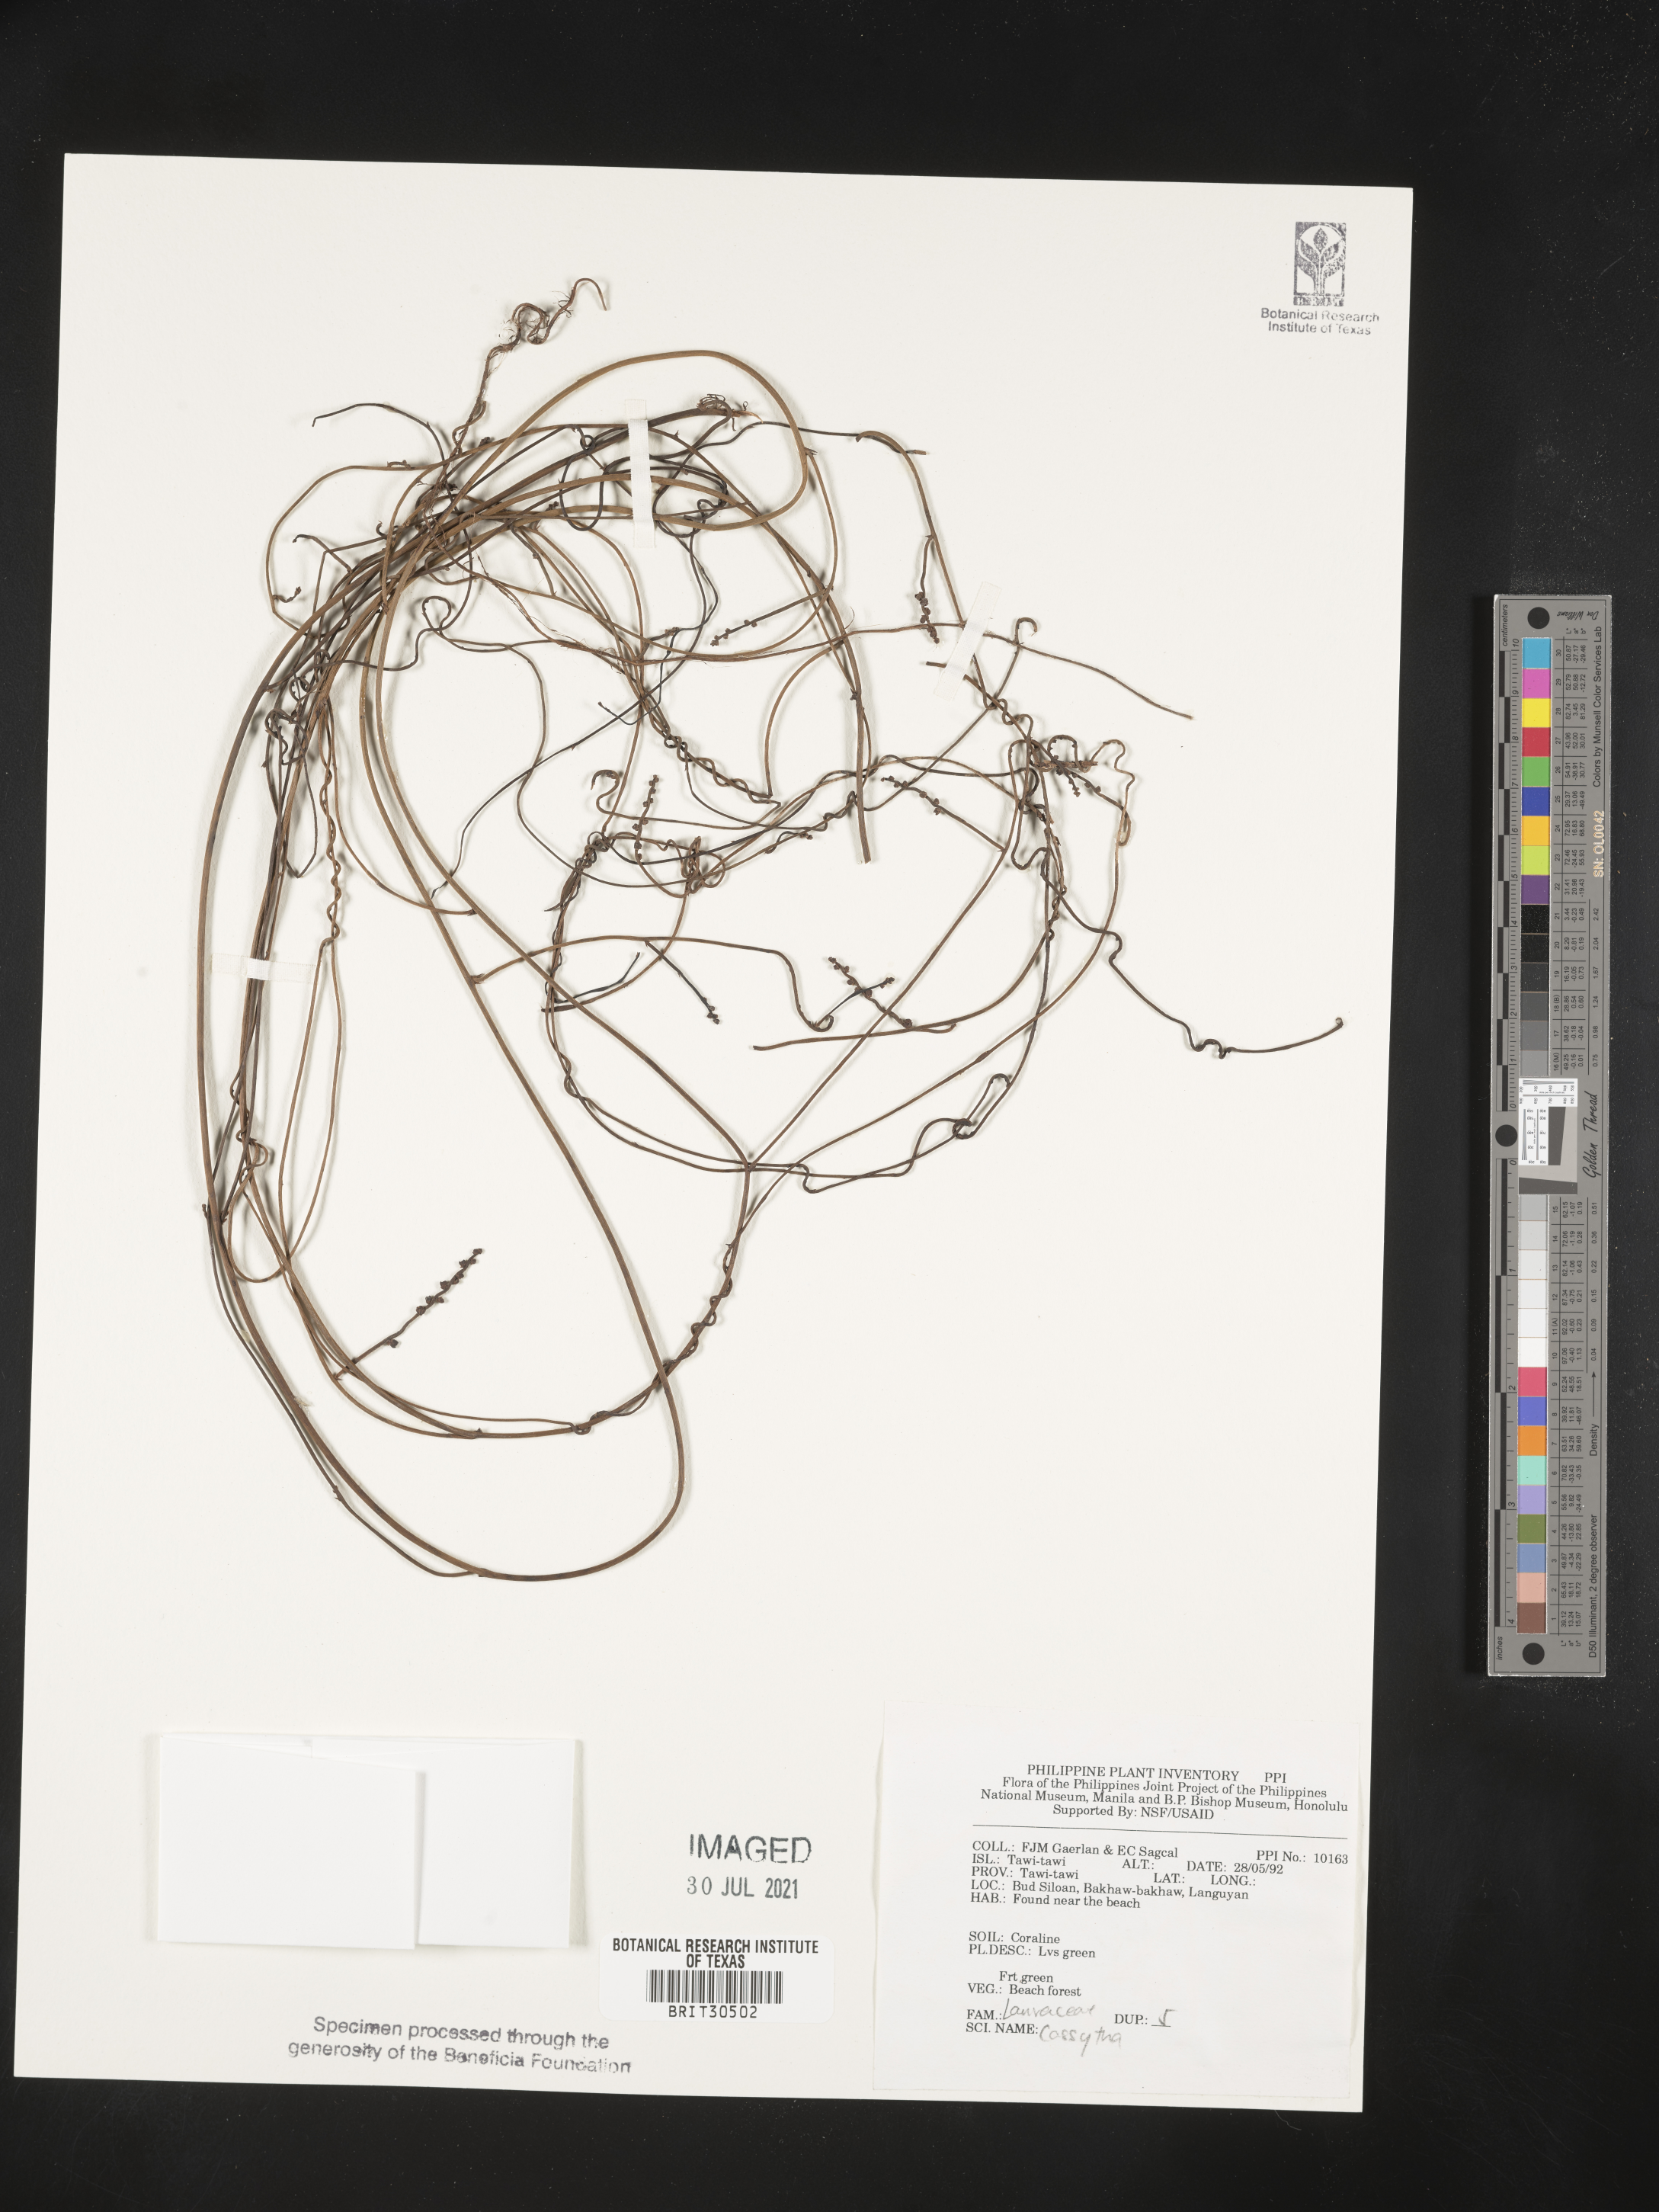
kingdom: Plantae
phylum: Tracheophyta
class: Magnoliopsida
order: Laurales
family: Lauraceae
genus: Cassytha
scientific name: Cassytha
